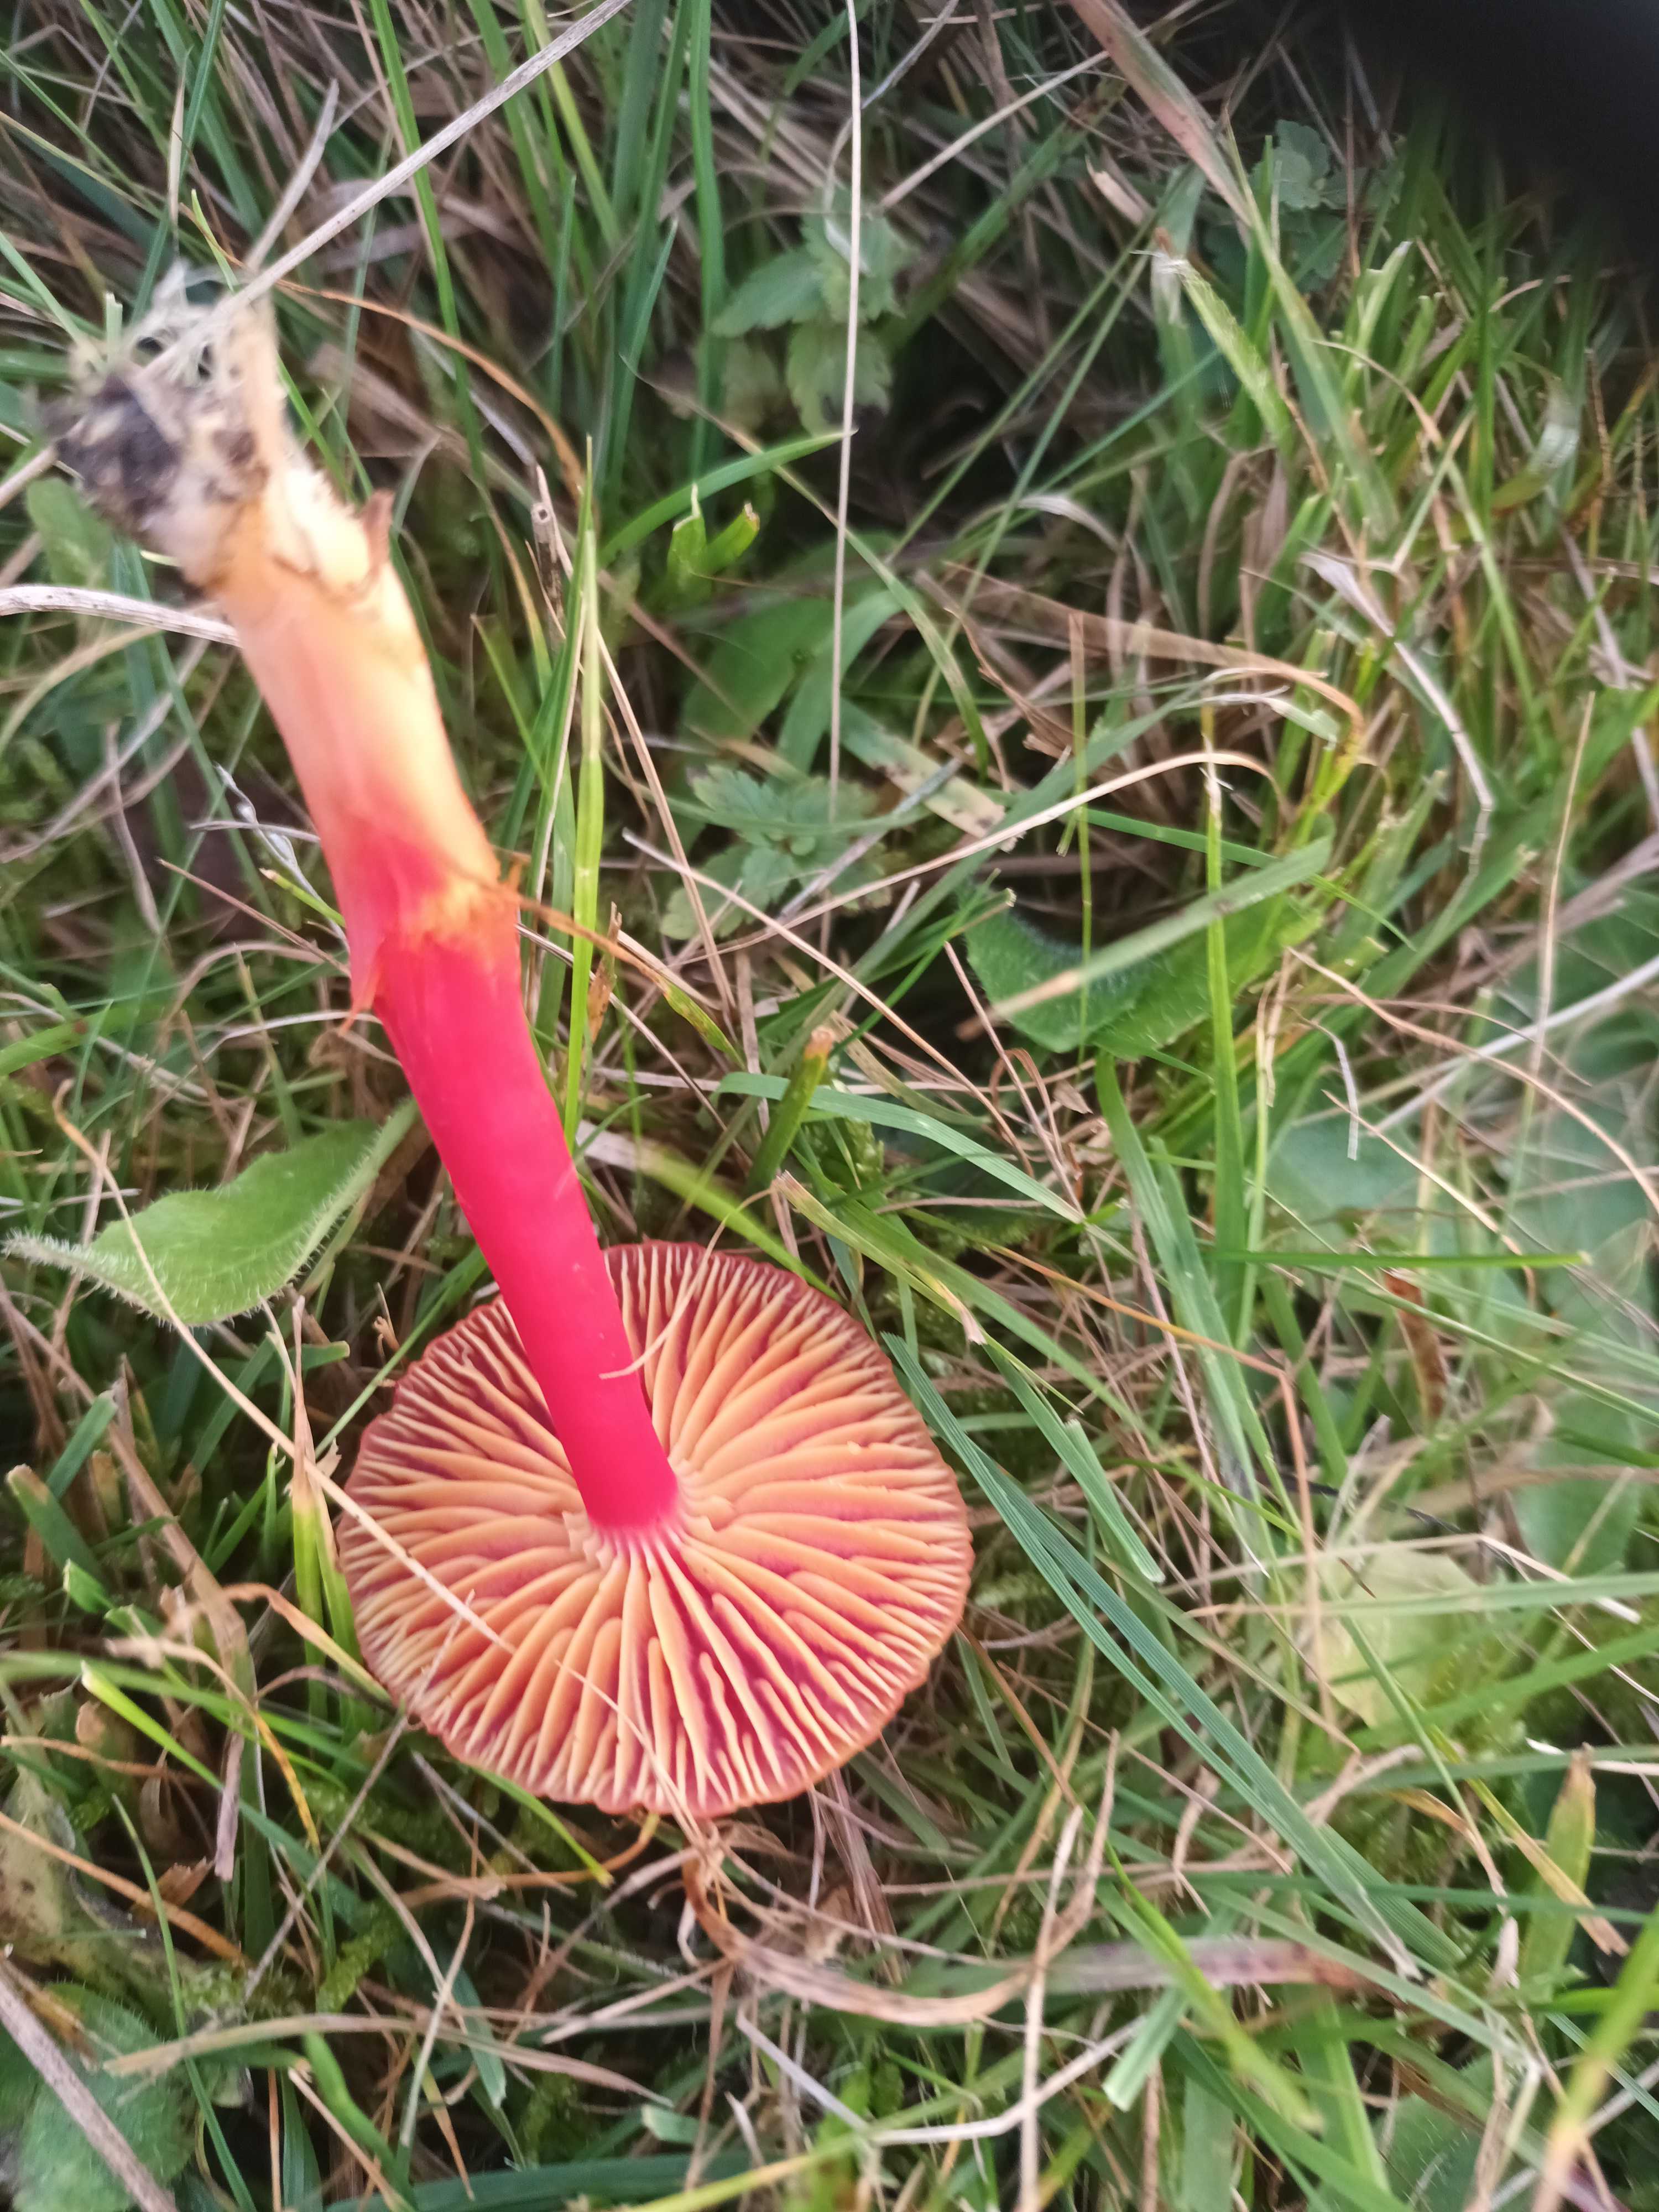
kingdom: Fungi
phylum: Basidiomycota
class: Agaricomycetes
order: Agaricales
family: Hygrophoraceae
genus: Hygrocybe
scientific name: Hygrocybe coccinea
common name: cinnober-vokshat
